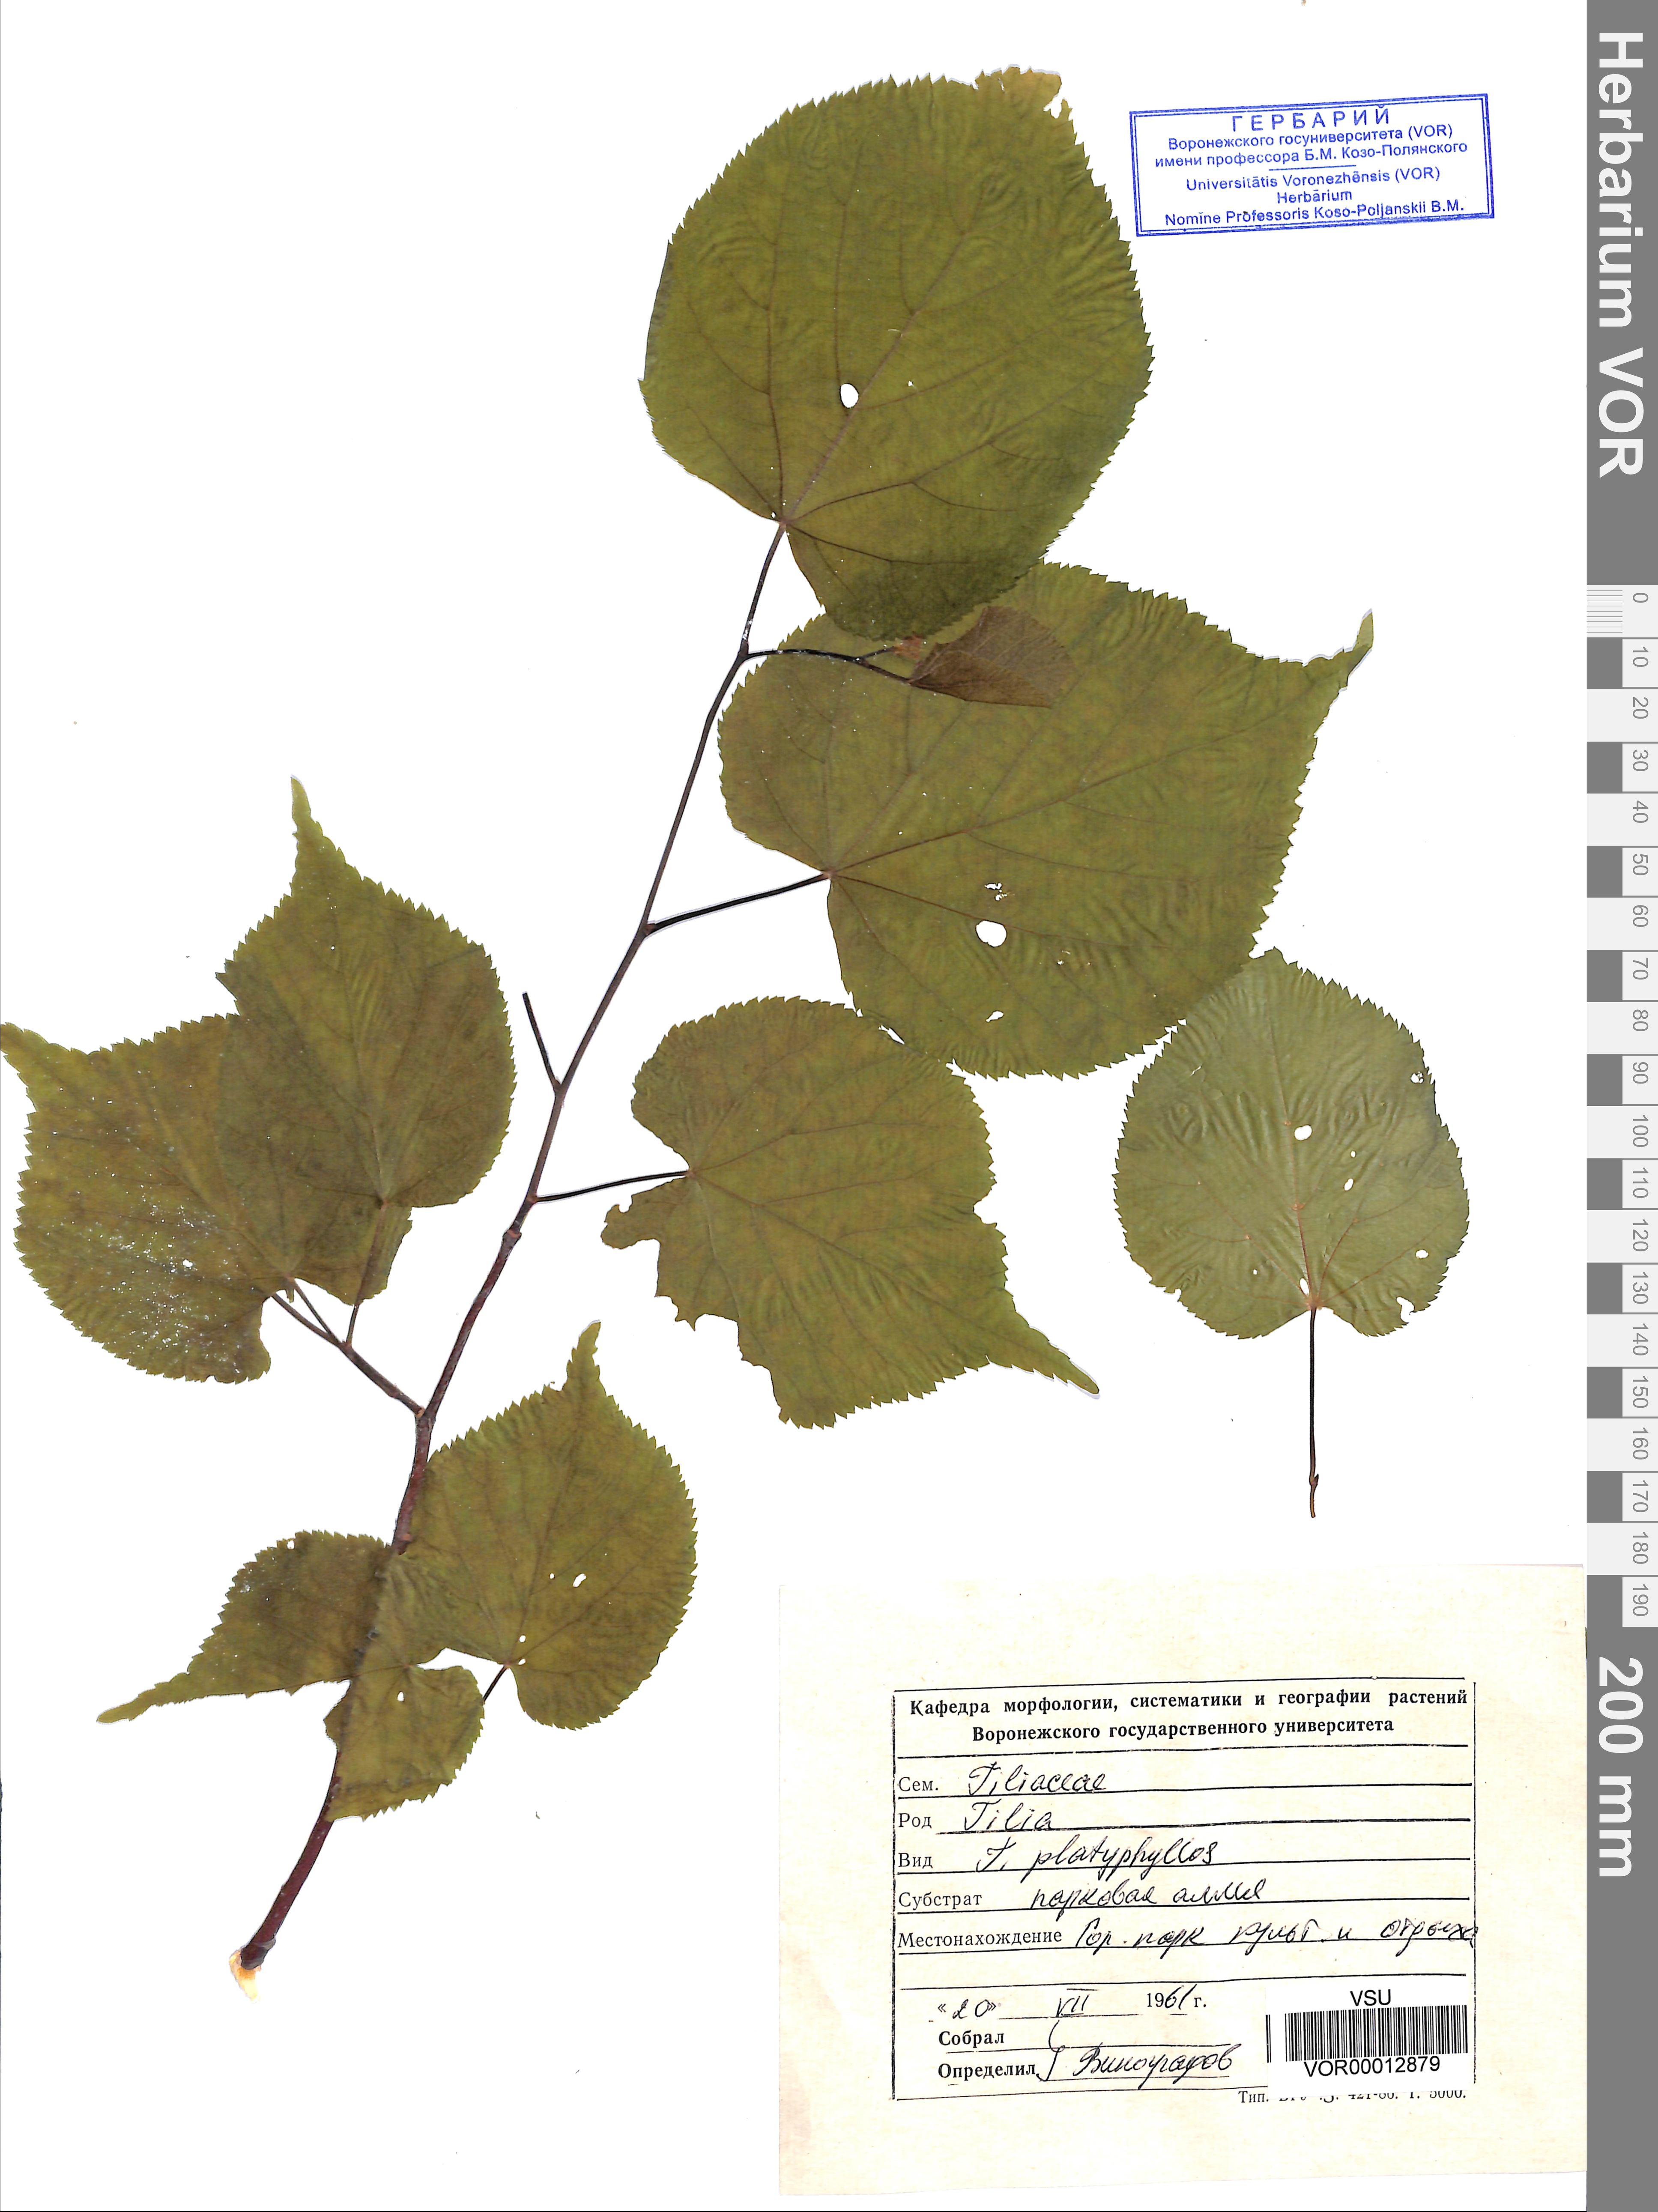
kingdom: Plantae
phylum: Tracheophyta
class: Magnoliopsida
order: Malvales
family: Malvaceae
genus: Tilia
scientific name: Tilia platyphyllos
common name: Large-leaved lime
